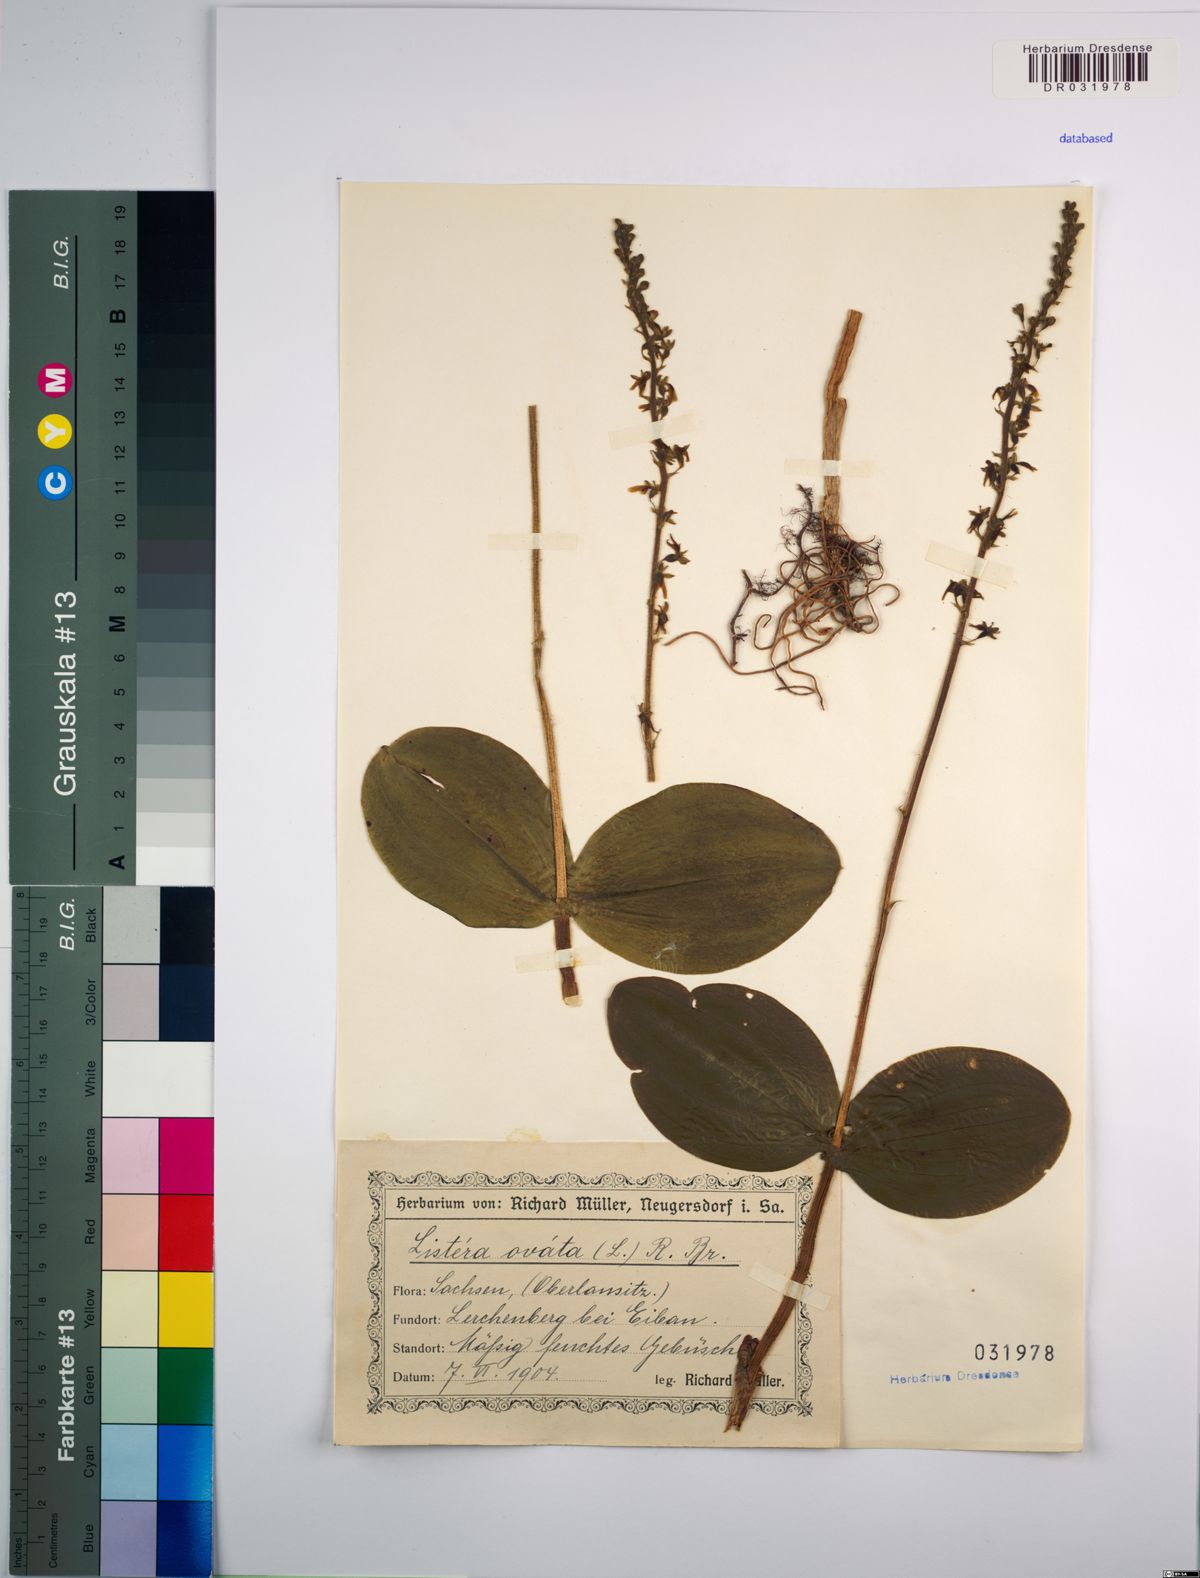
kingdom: Plantae
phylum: Tracheophyta
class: Liliopsida
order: Asparagales
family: Orchidaceae
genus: Neottia
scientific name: Neottia ovata
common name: Common twayblade
